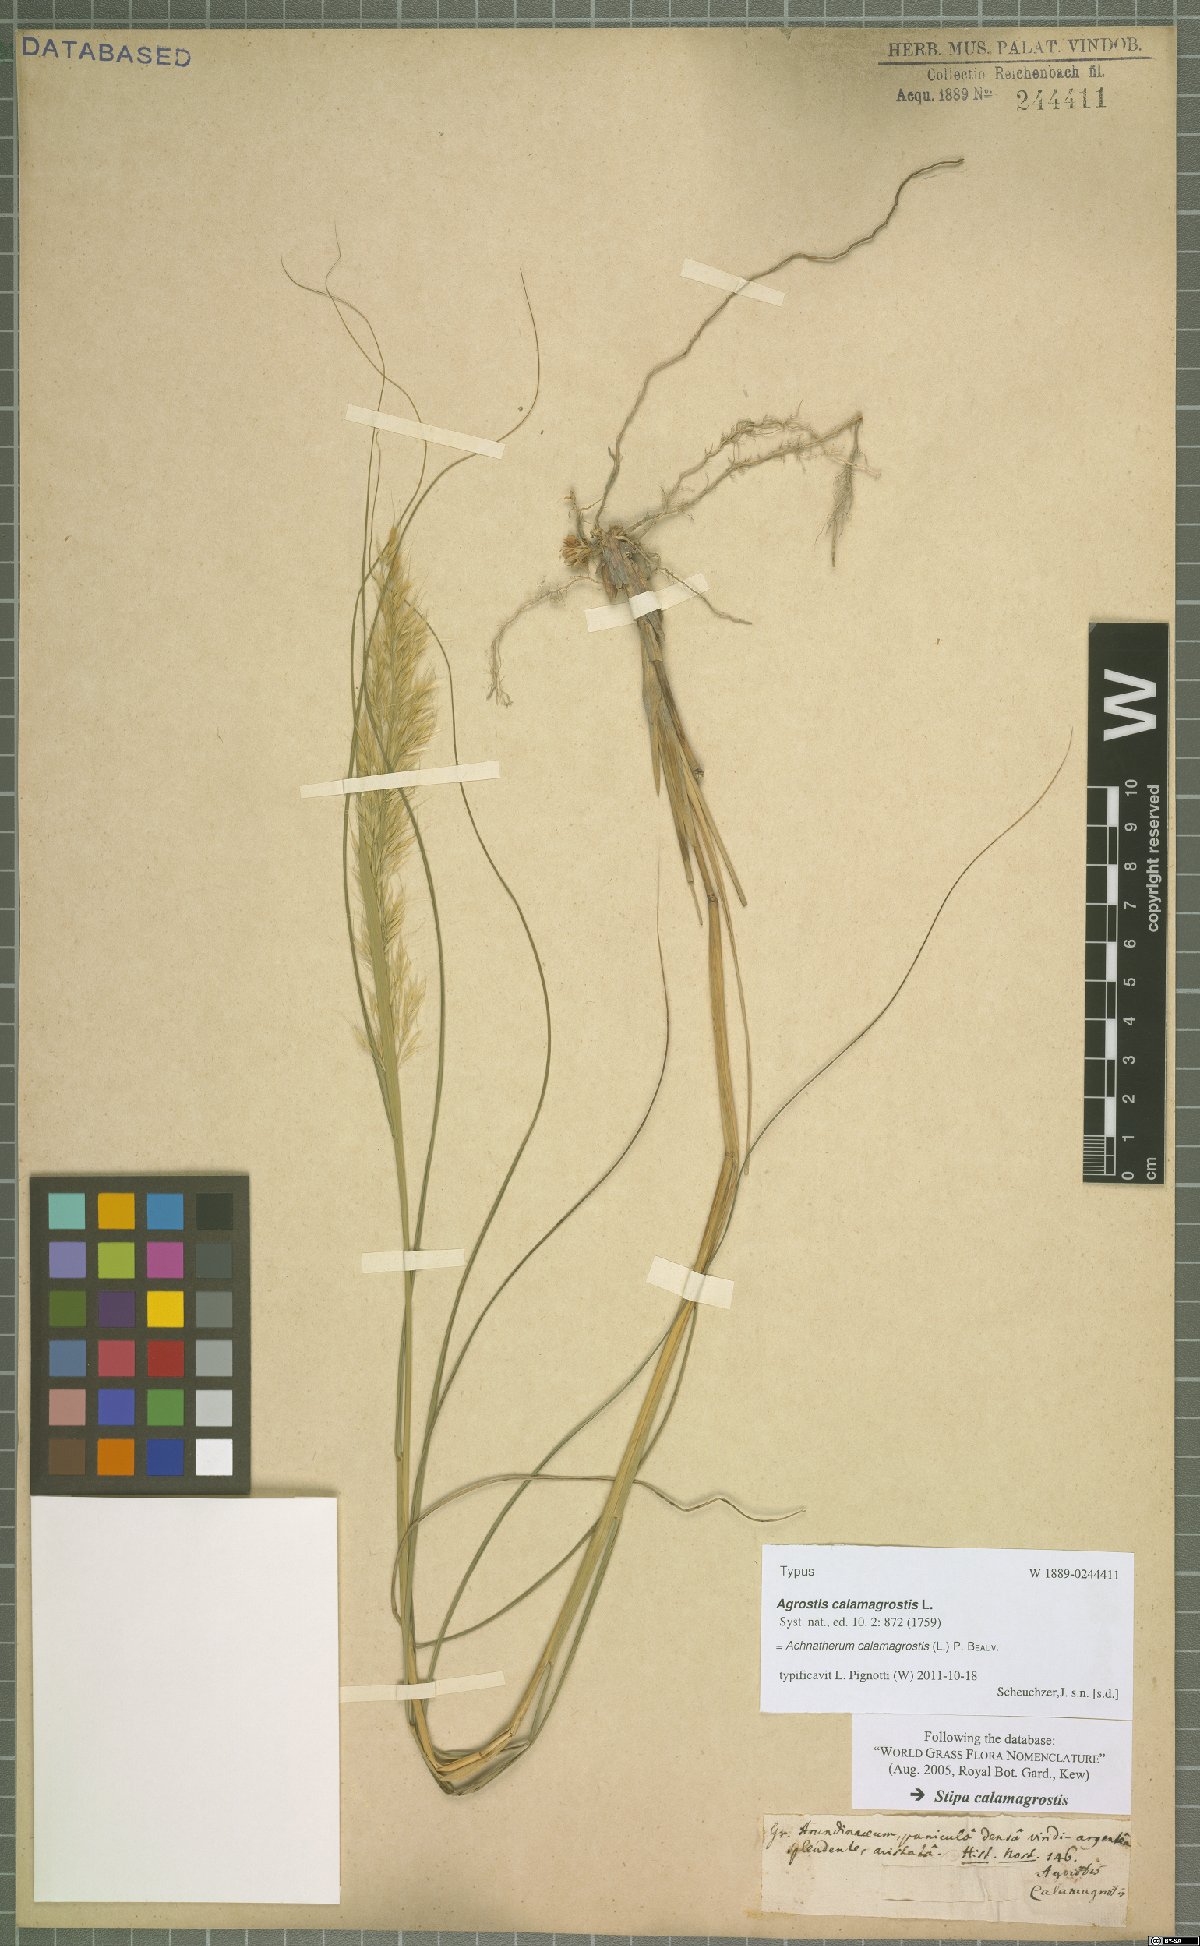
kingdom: Plantae
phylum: Tracheophyta
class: Liliopsida
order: Poales
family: Poaceae
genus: Achnatherum
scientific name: Achnatherum calamagrostis
